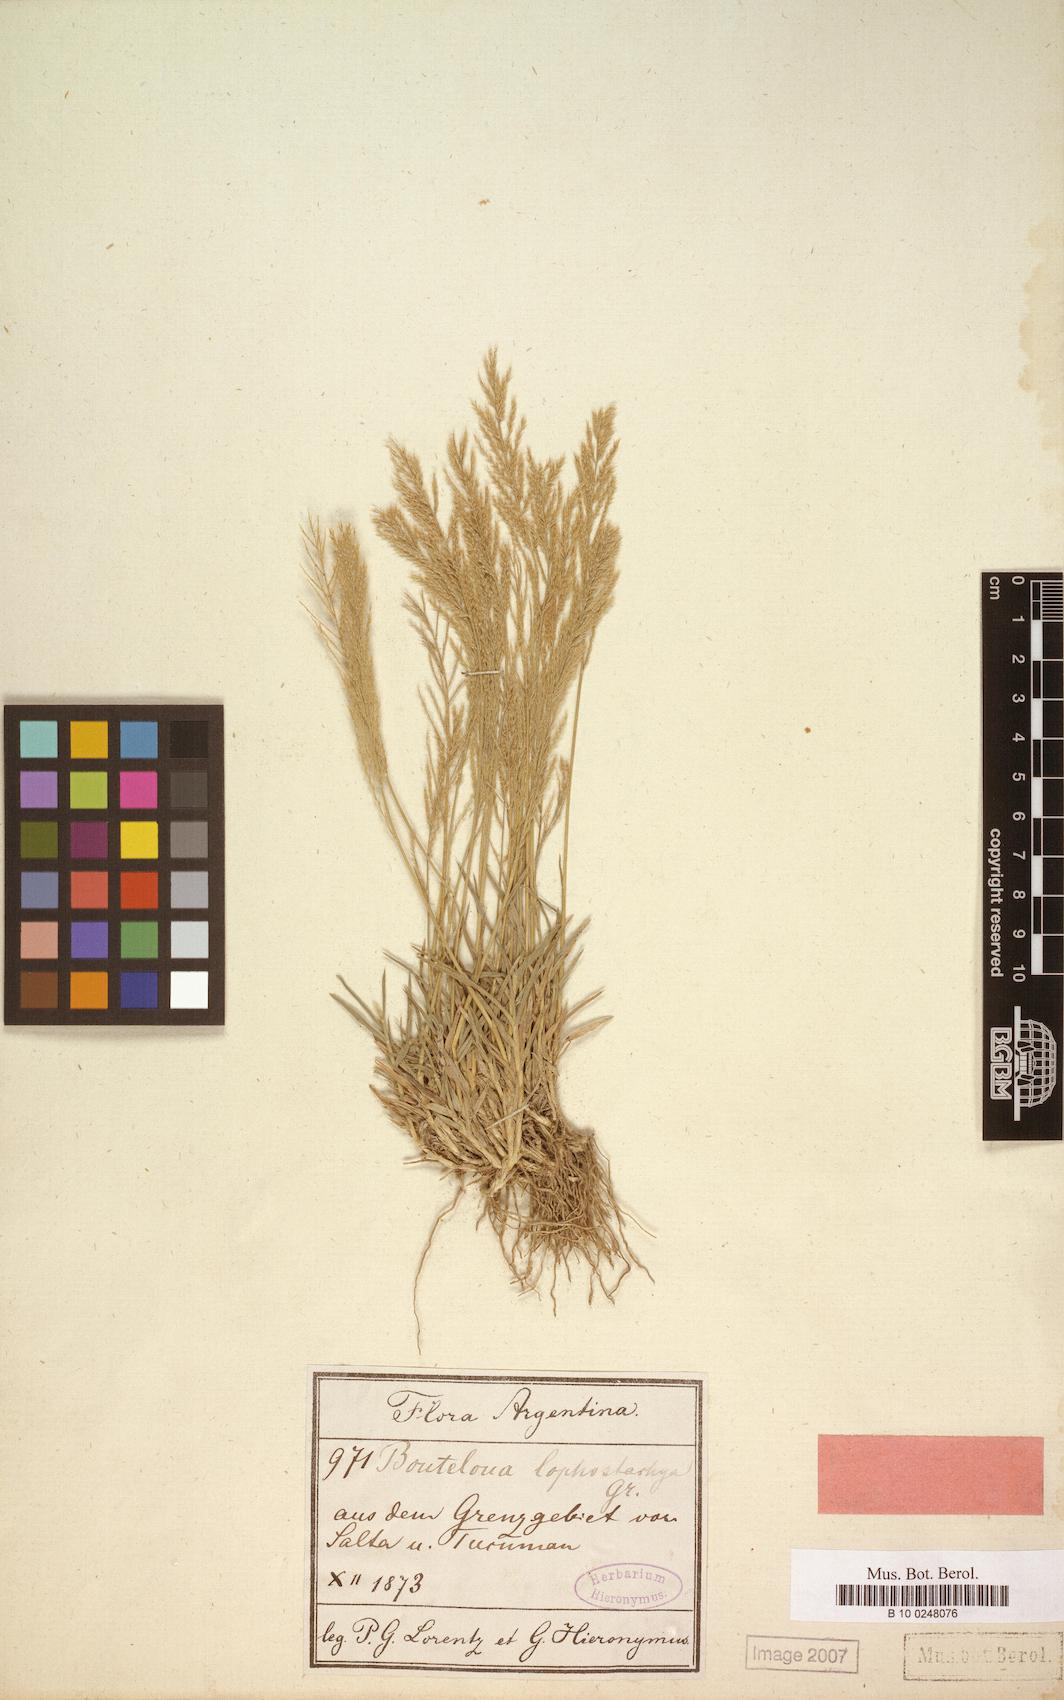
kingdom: Plantae
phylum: Tracheophyta
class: Liliopsida
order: Poales
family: Poaceae
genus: Neobouteloua
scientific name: Neobouteloua lophostachya
